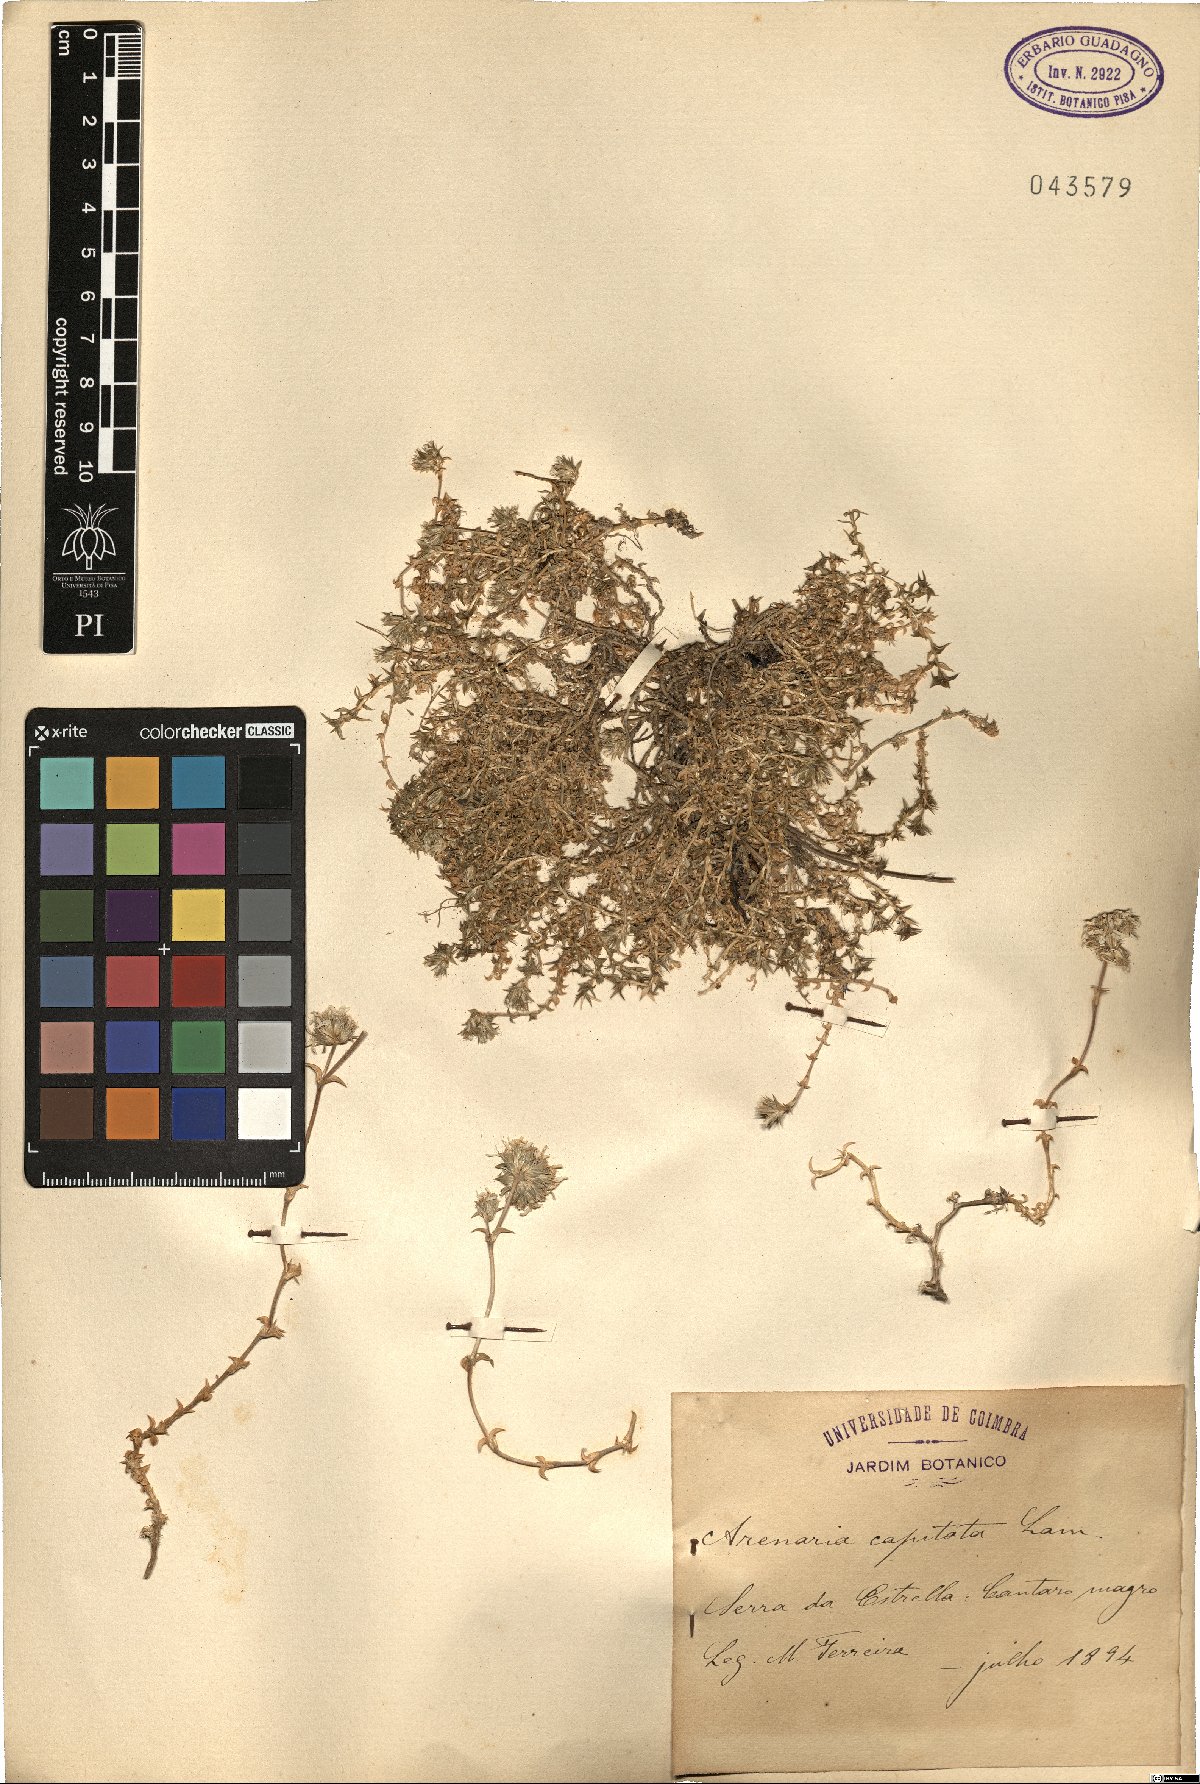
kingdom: Plantae
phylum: Tracheophyta
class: Magnoliopsida
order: Caryophyllales
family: Caryophyllaceae
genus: Arenaria
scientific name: Arenaria aggregata
